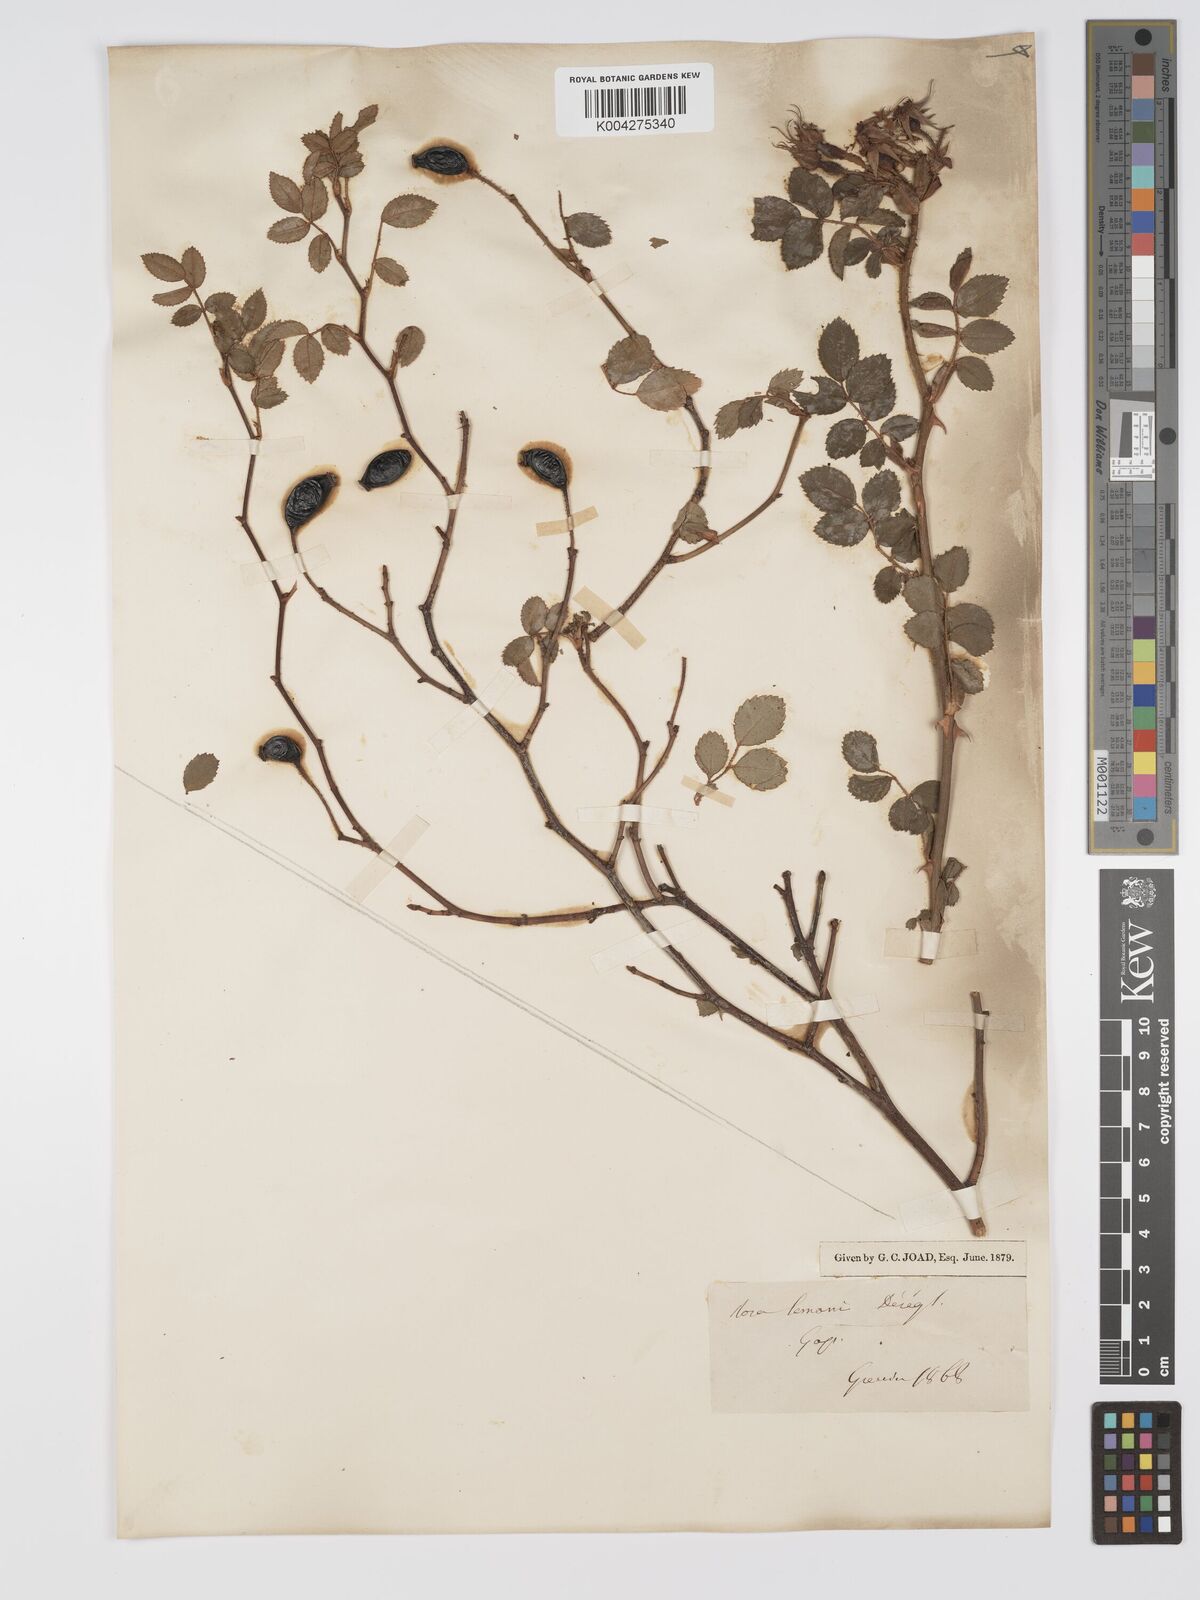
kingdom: Plantae
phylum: Tracheophyta
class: Magnoliopsida
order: Rosales
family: Rosaceae
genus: Rosa
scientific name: Rosa
